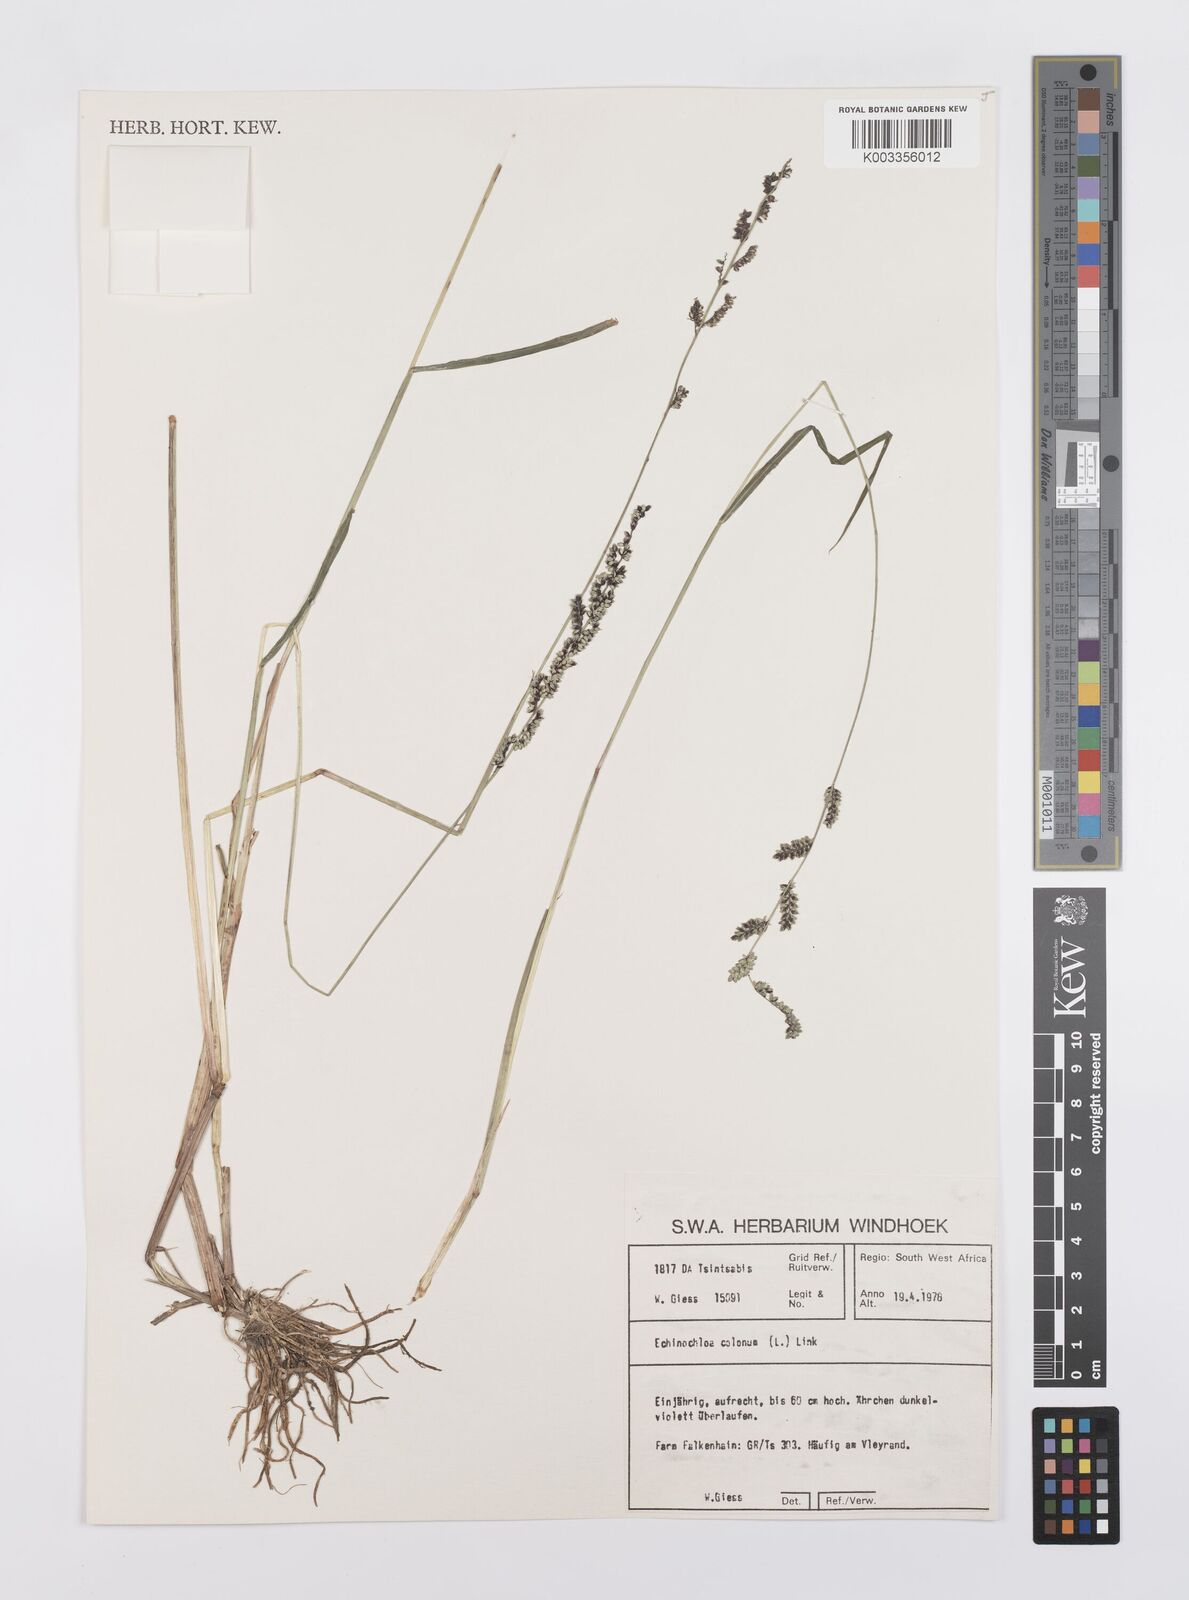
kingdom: Plantae
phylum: Tracheophyta
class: Liliopsida
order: Poales
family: Poaceae
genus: Echinochloa
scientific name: Echinochloa colonum
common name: Jungle rice
